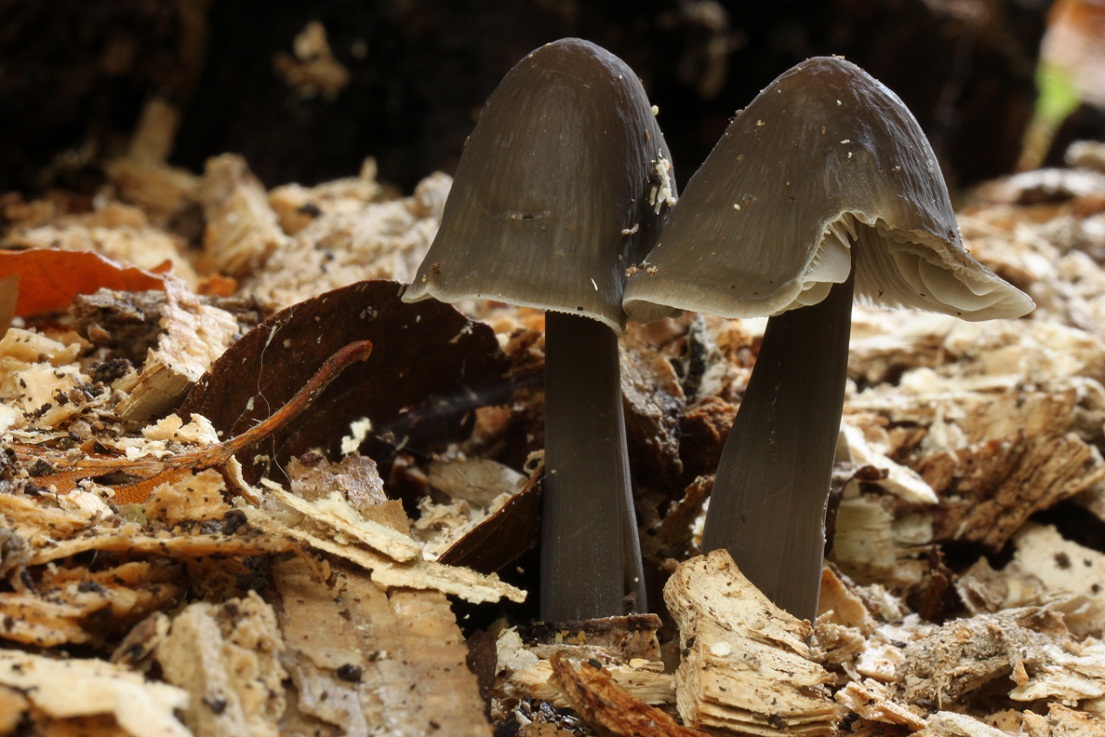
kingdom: Fungi
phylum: Basidiomycota
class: Agaricomycetes
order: Agaricales
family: Mycenaceae
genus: Mycena
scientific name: Mycena galericulata
